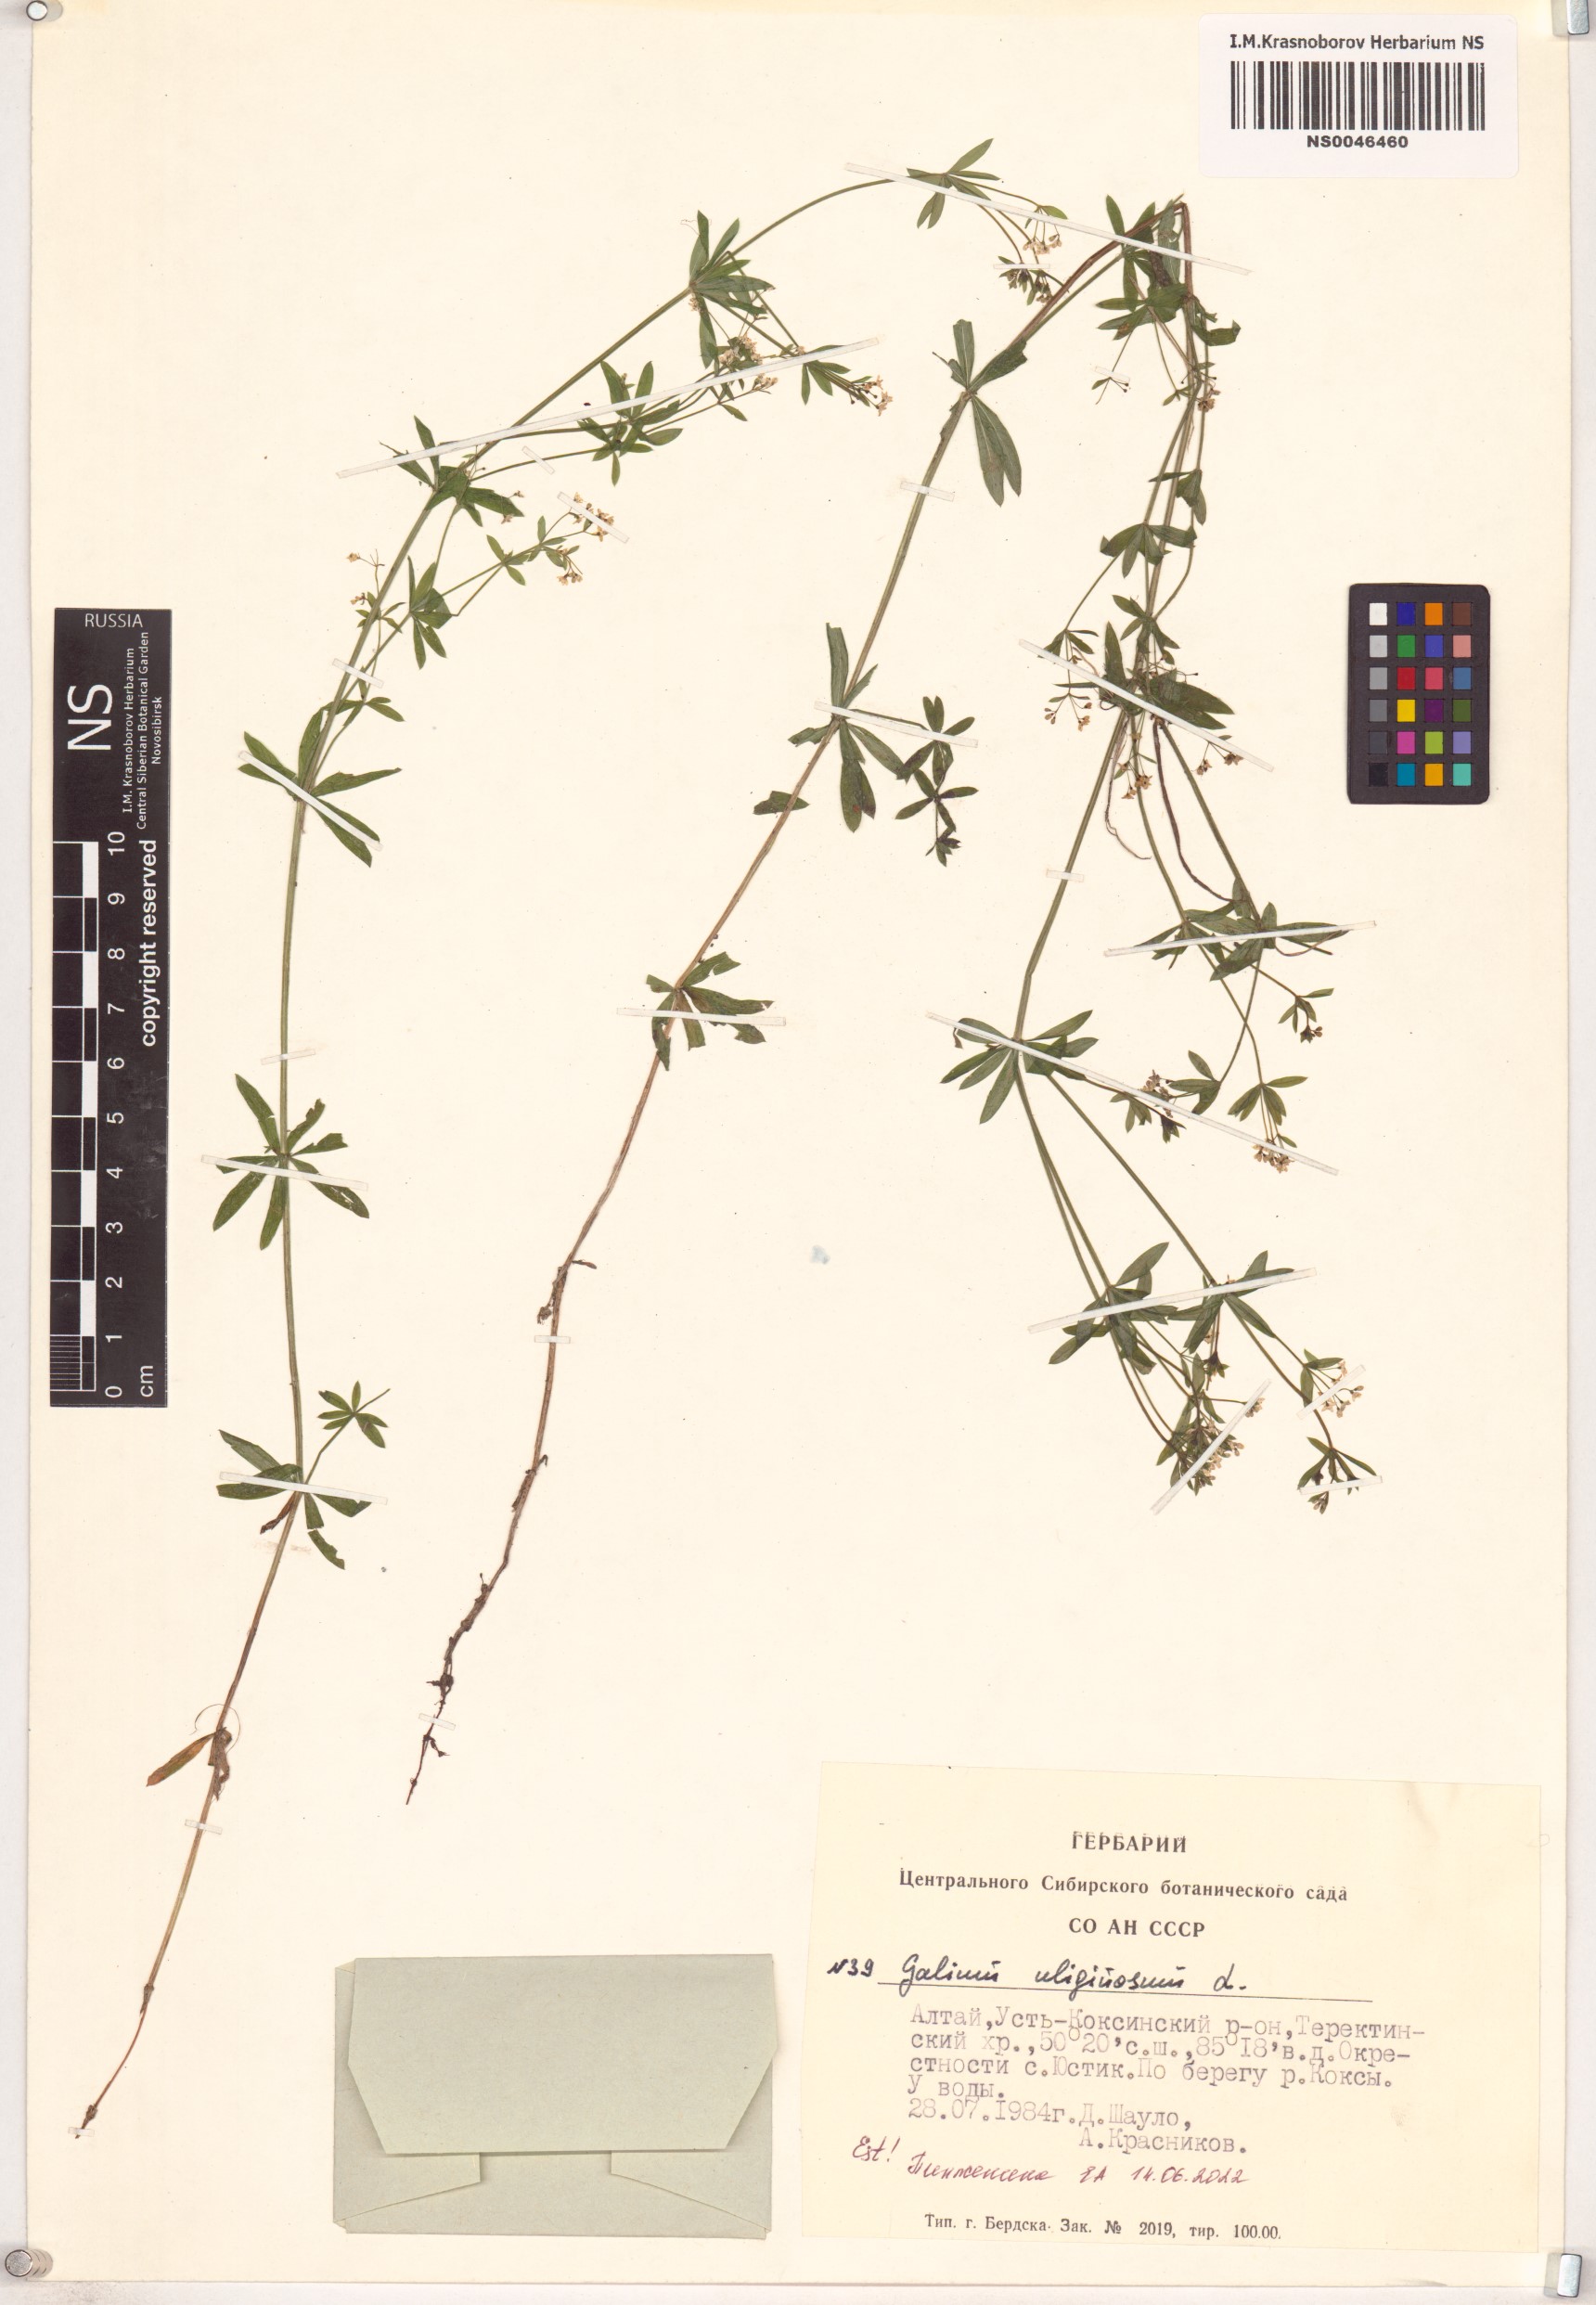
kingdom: Plantae
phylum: Tracheophyta
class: Magnoliopsida
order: Gentianales
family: Rubiaceae
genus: Galium
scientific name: Galium uliginosum
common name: Fen bedstraw
